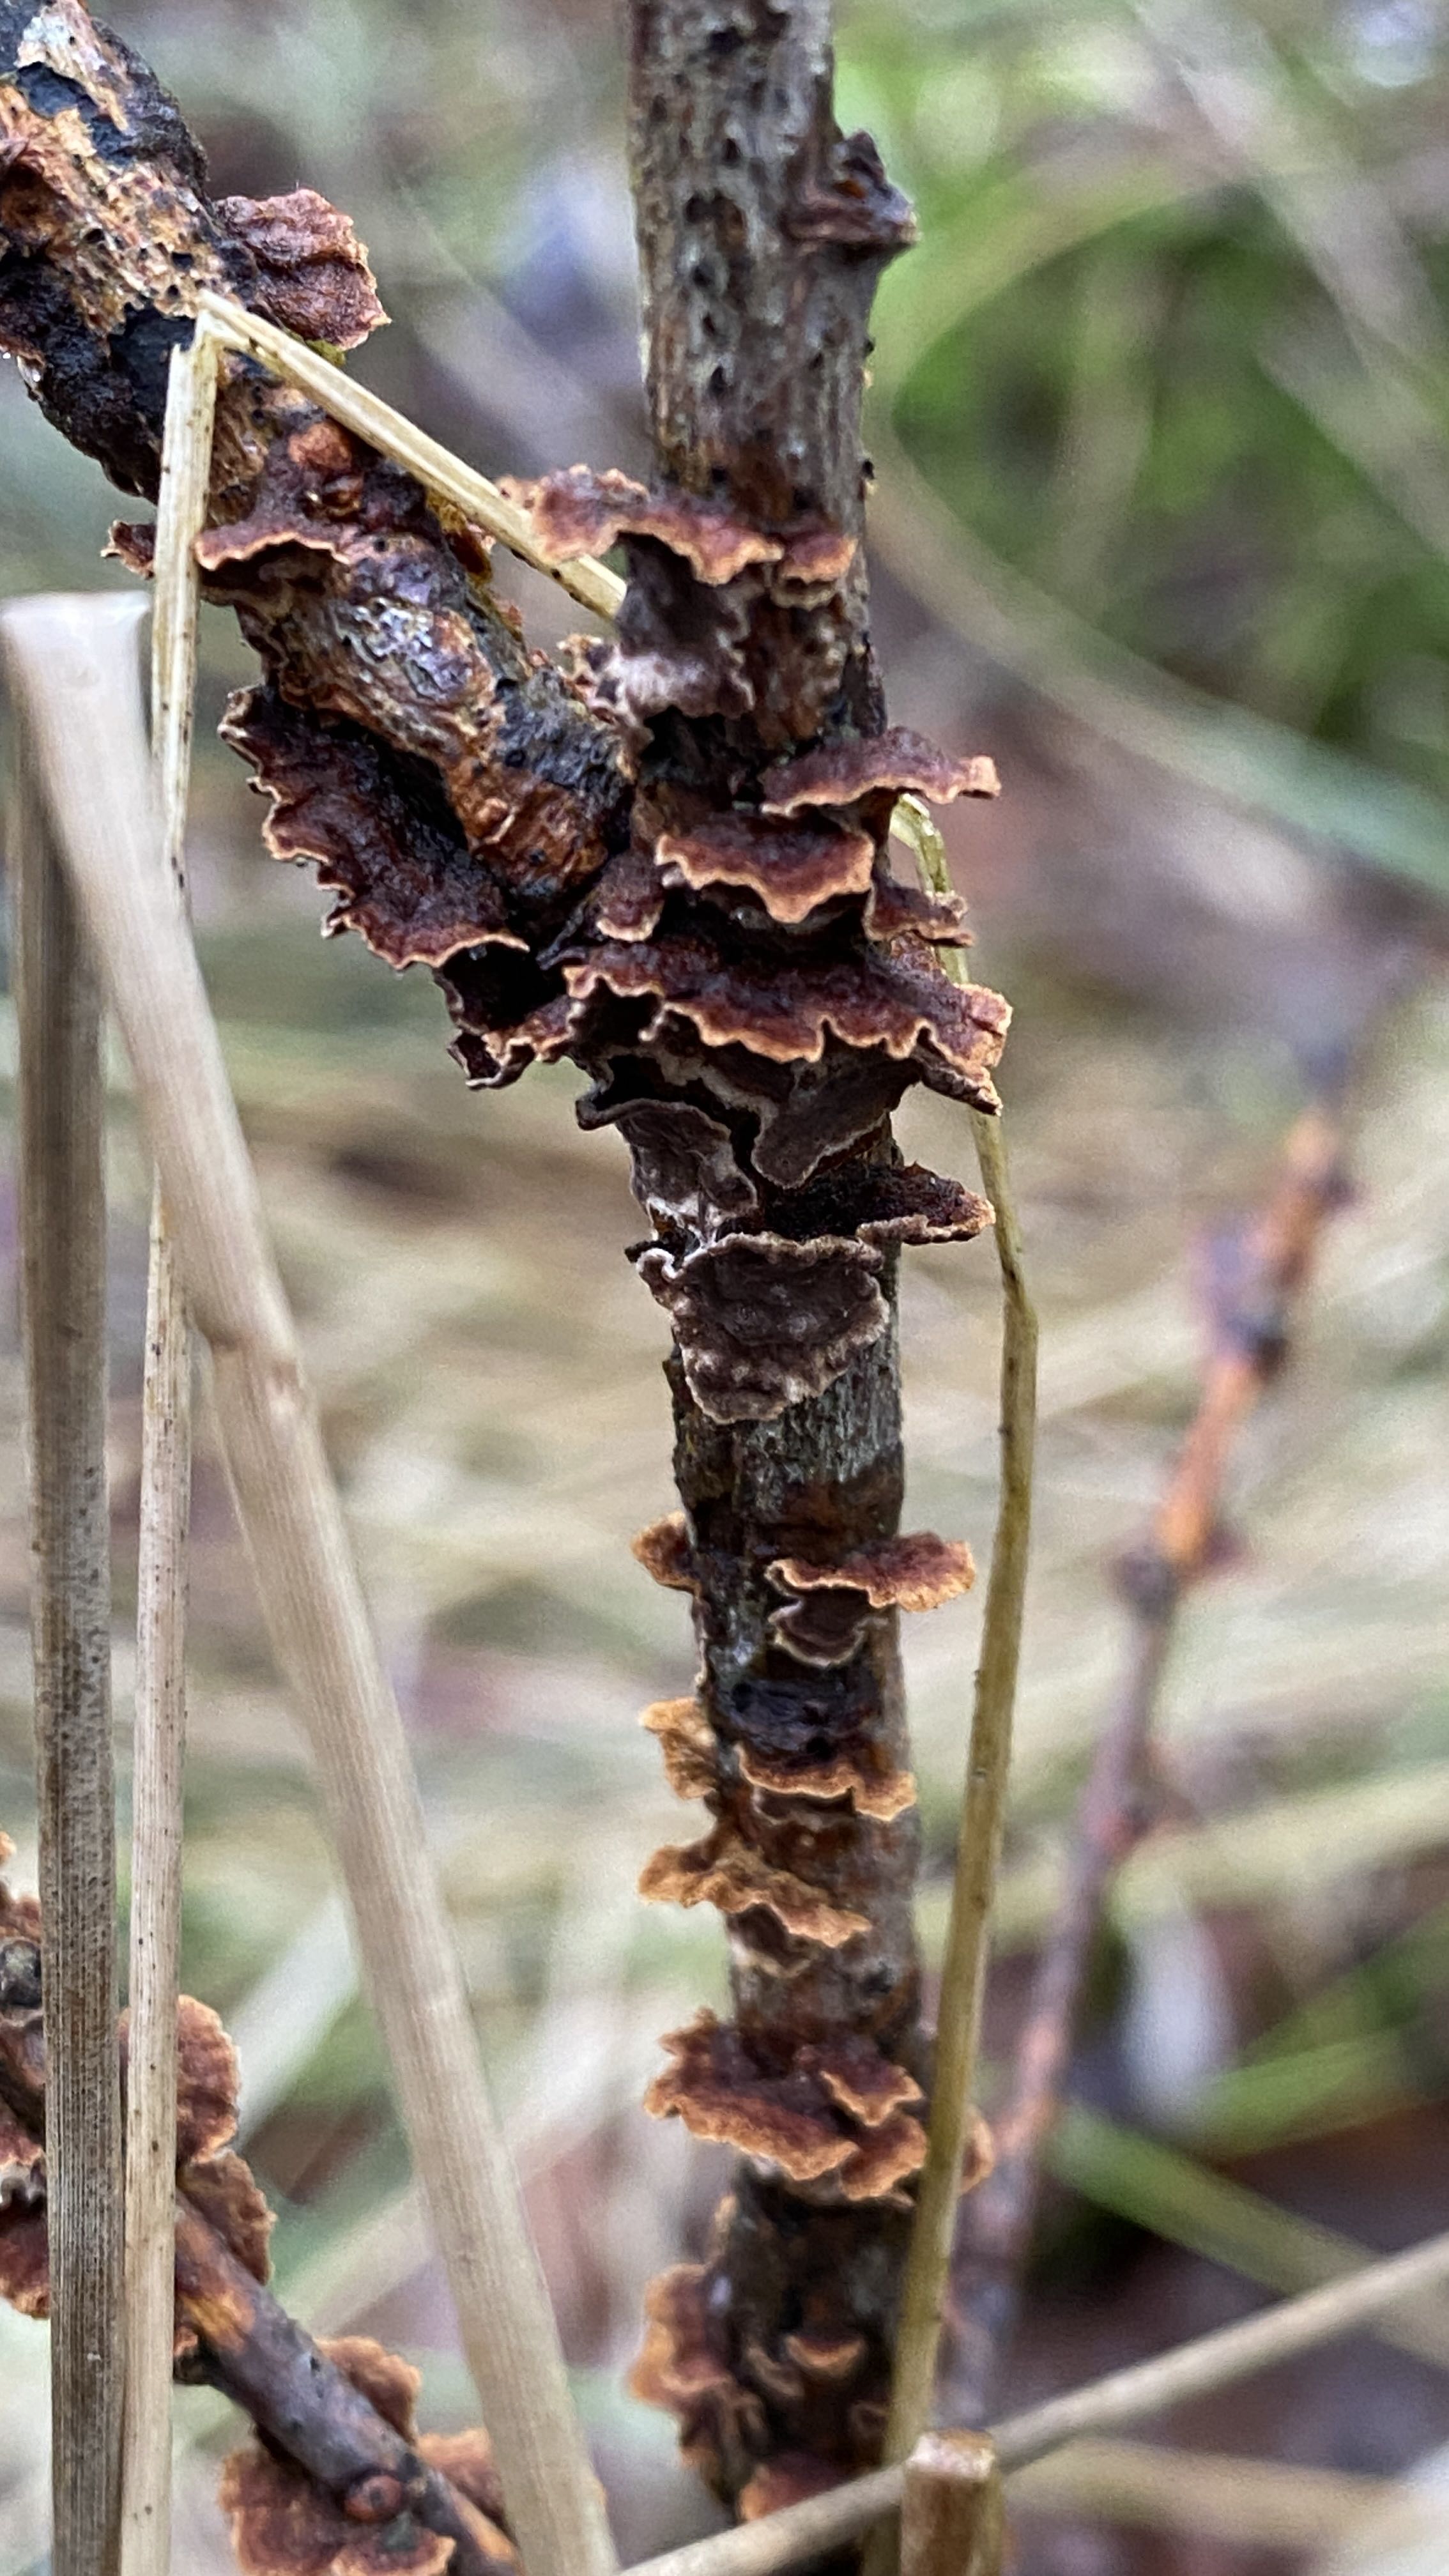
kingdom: Fungi
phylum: Basidiomycota
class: Agaricomycetes
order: Hymenochaetales
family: Hymenochaetaceae
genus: Hydnoporia
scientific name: Hydnoporia tabacina
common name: tobaksbrun ruslædersvamp
